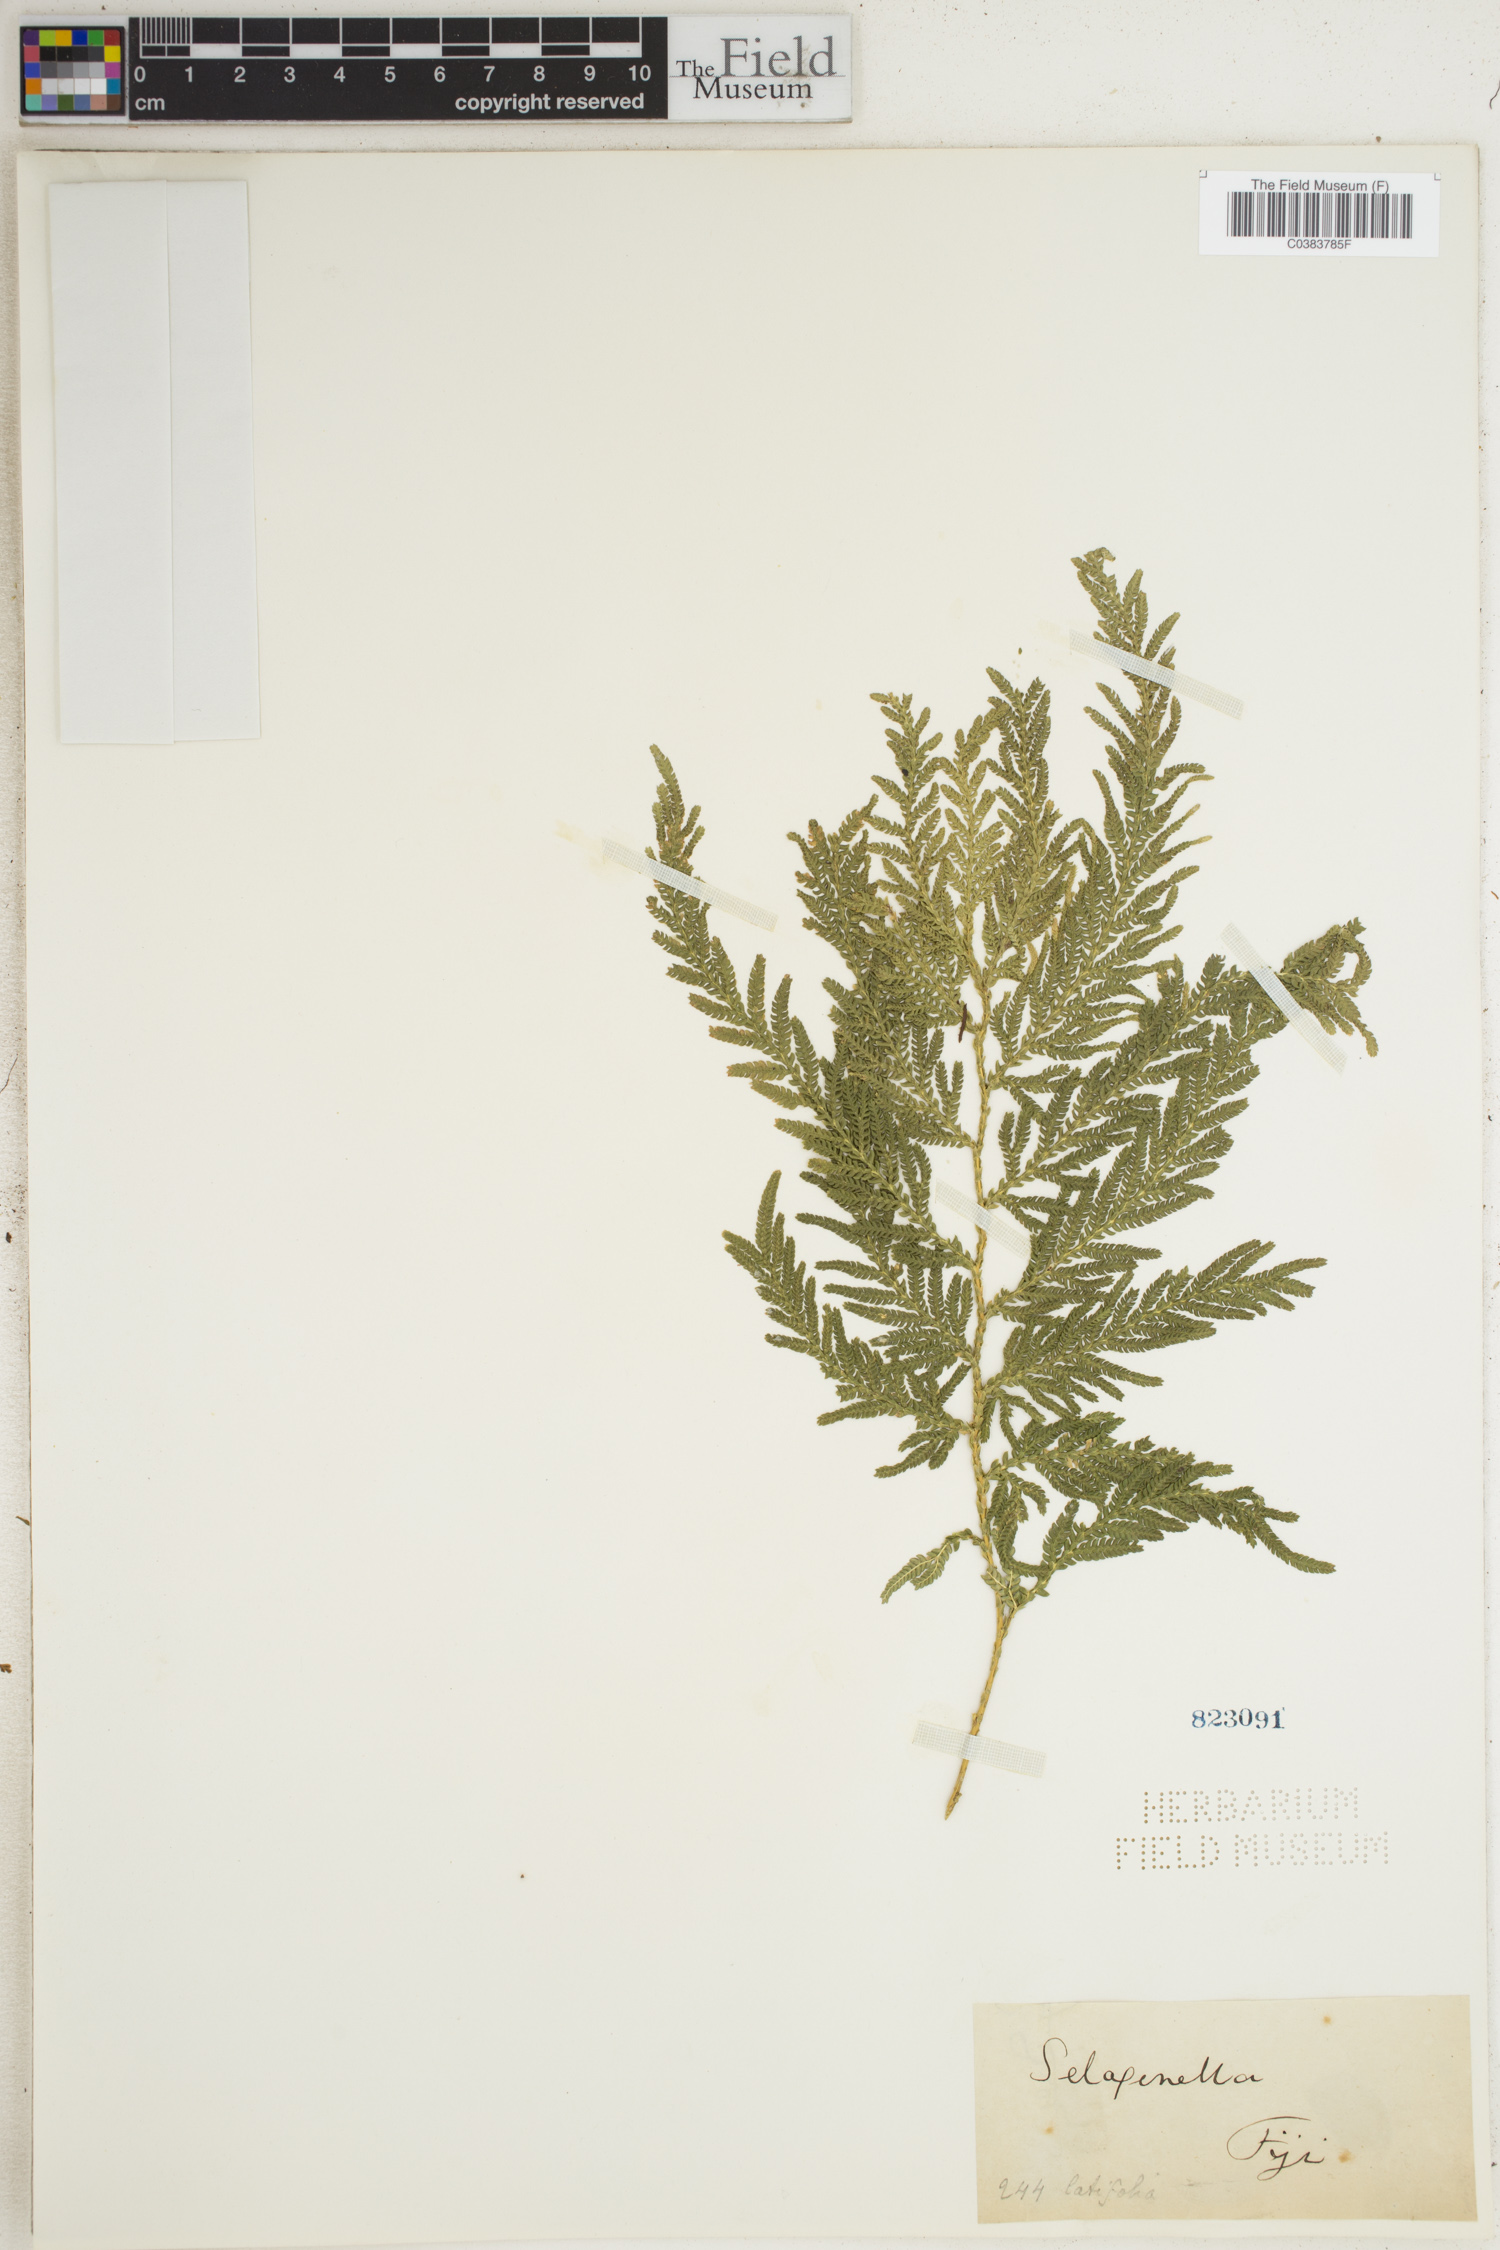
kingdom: Plantae
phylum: Tracheophyta
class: Lycopodiopsida
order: Selaginellales
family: Selaginellaceae
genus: Selaginella
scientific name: Selaginella
